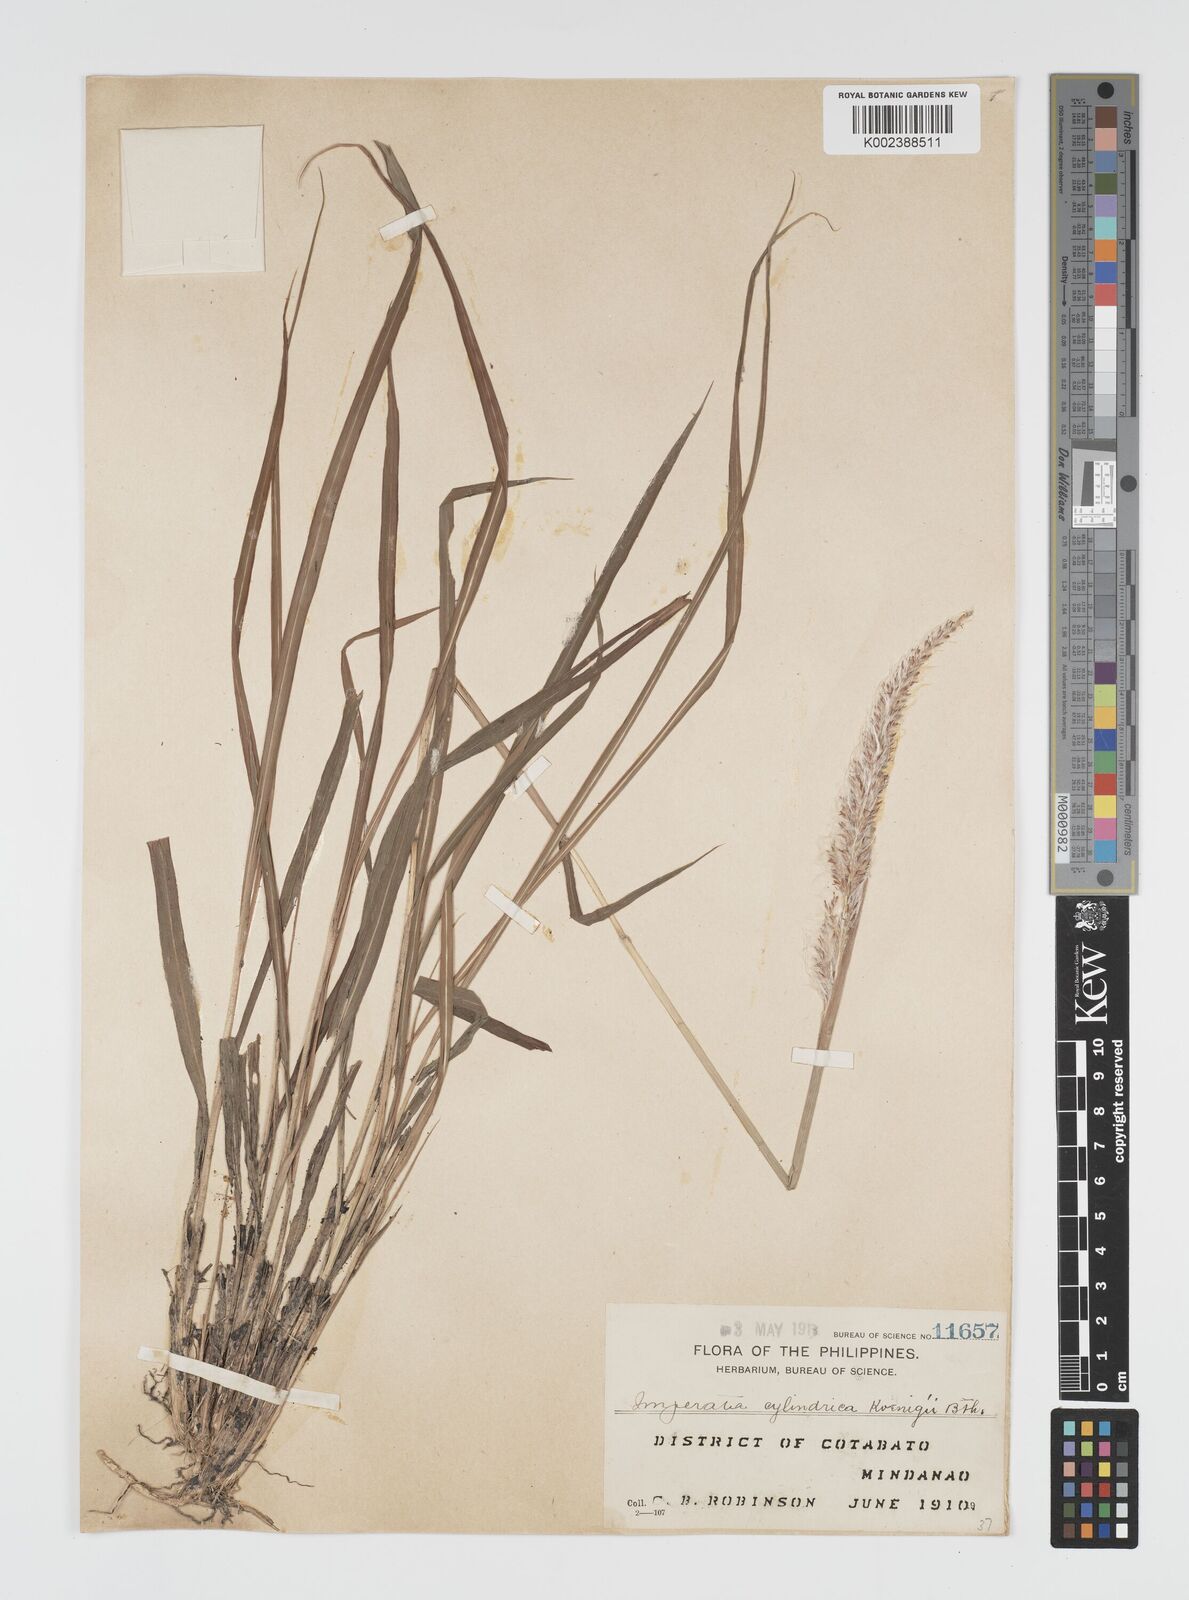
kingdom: Plantae
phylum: Tracheophyta
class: Liliopsida
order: Poales
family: Poaceae
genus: Imperata
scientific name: Imperata cylindrica
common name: Cogongrass
